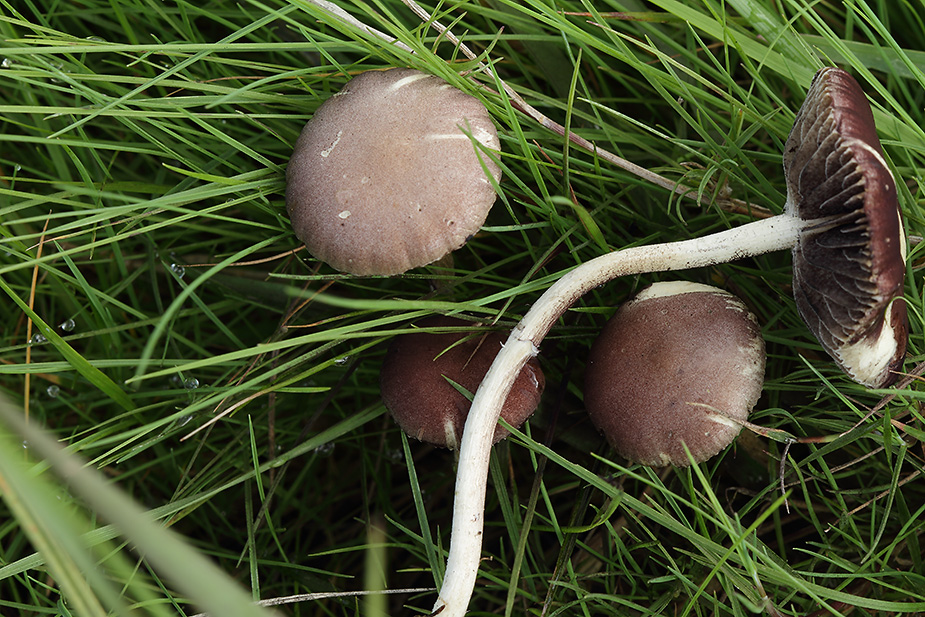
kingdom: Fungi
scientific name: Fungi
